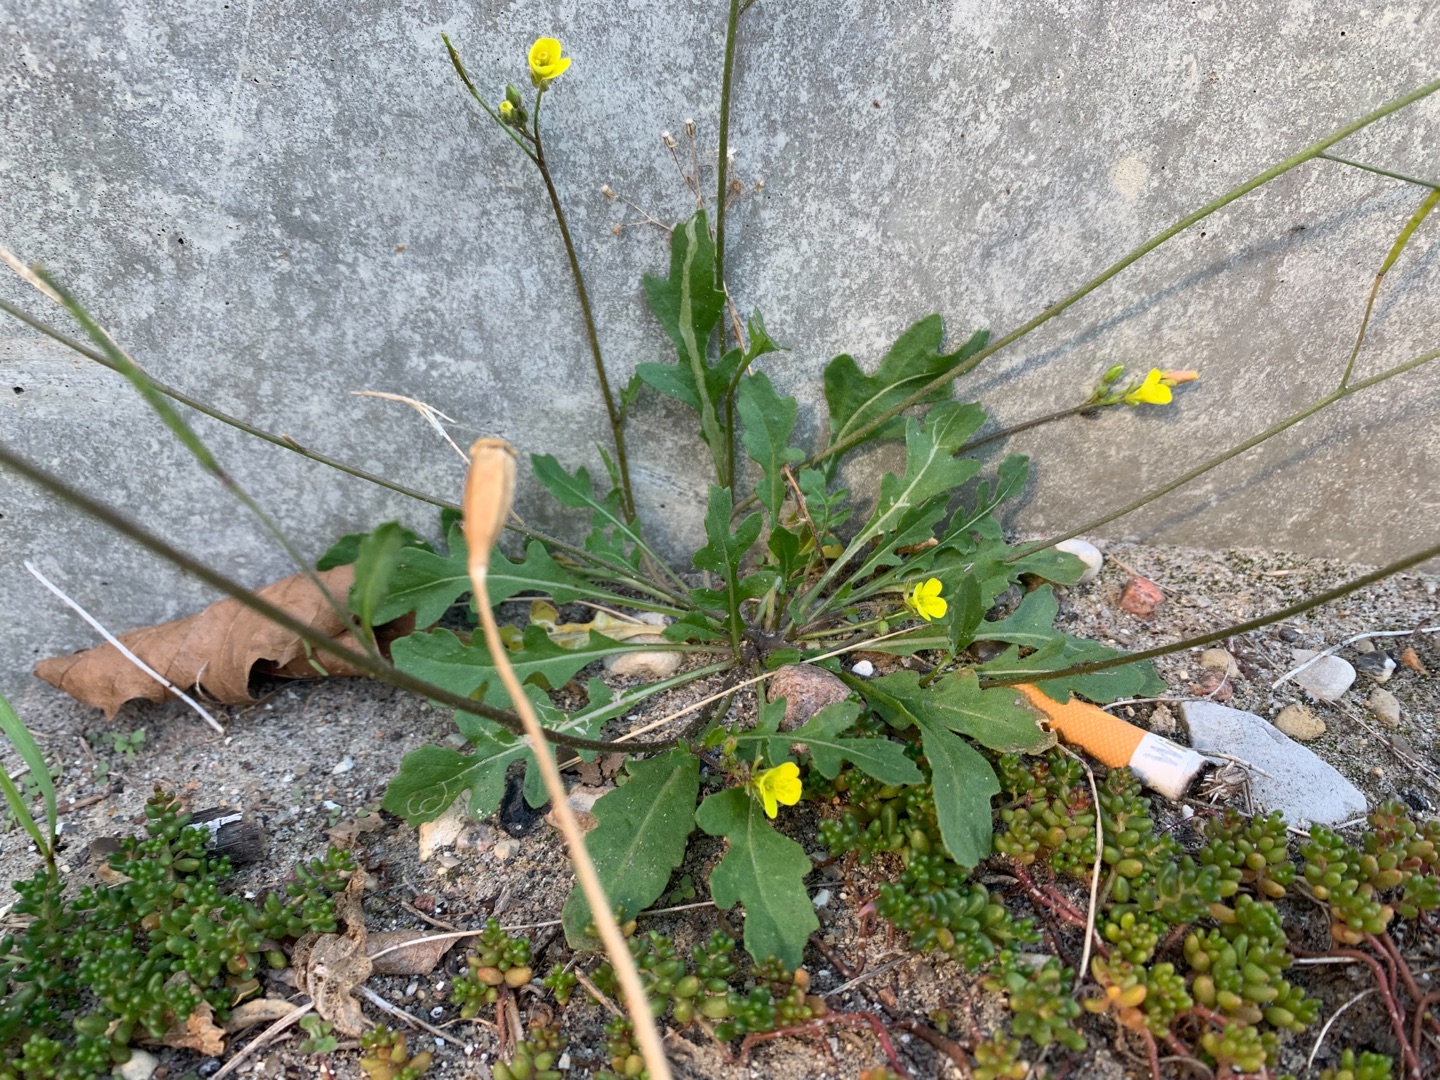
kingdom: Plantae
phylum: Tracheophyta
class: Magnoliopsida
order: Brassicales
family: Brassicaceae
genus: Diplotaxis
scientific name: Diplotaxis muralis
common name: Mursennep
